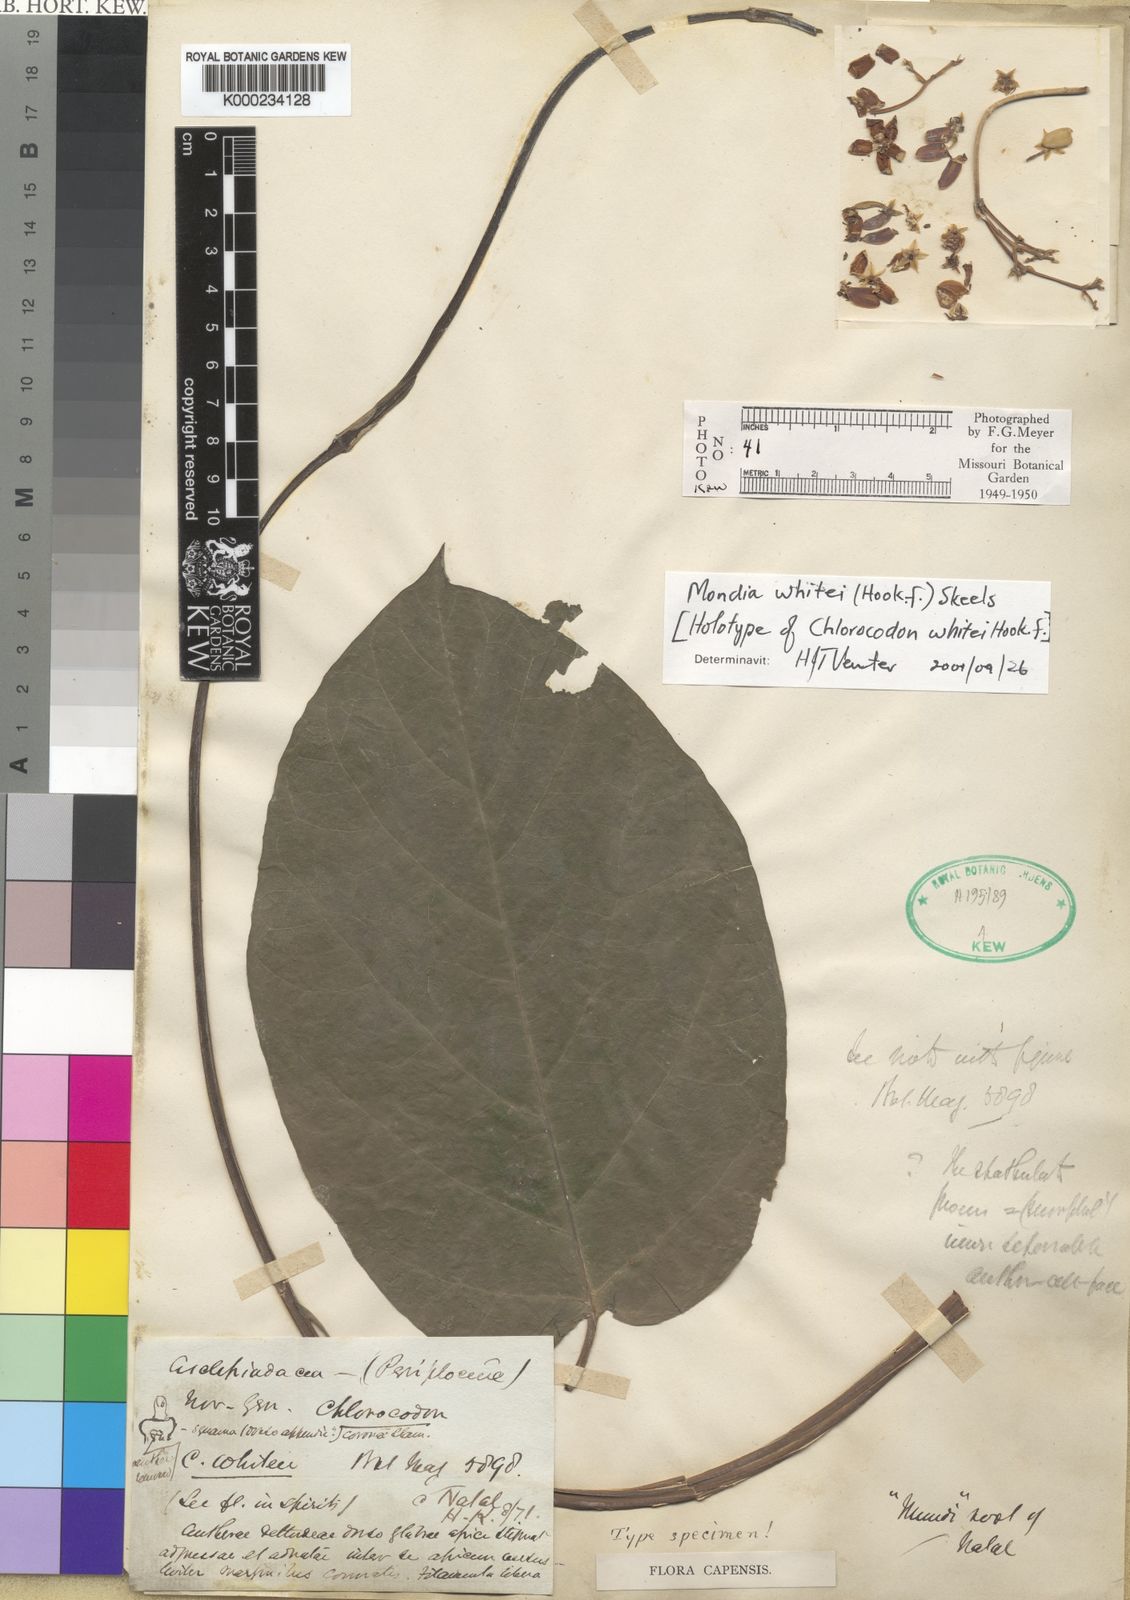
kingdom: Plantae
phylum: Tracheophyta
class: Magnoliopsida
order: Gentianales
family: Apocynaceae
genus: Mondia
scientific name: Mondia whitei
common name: Mondia
